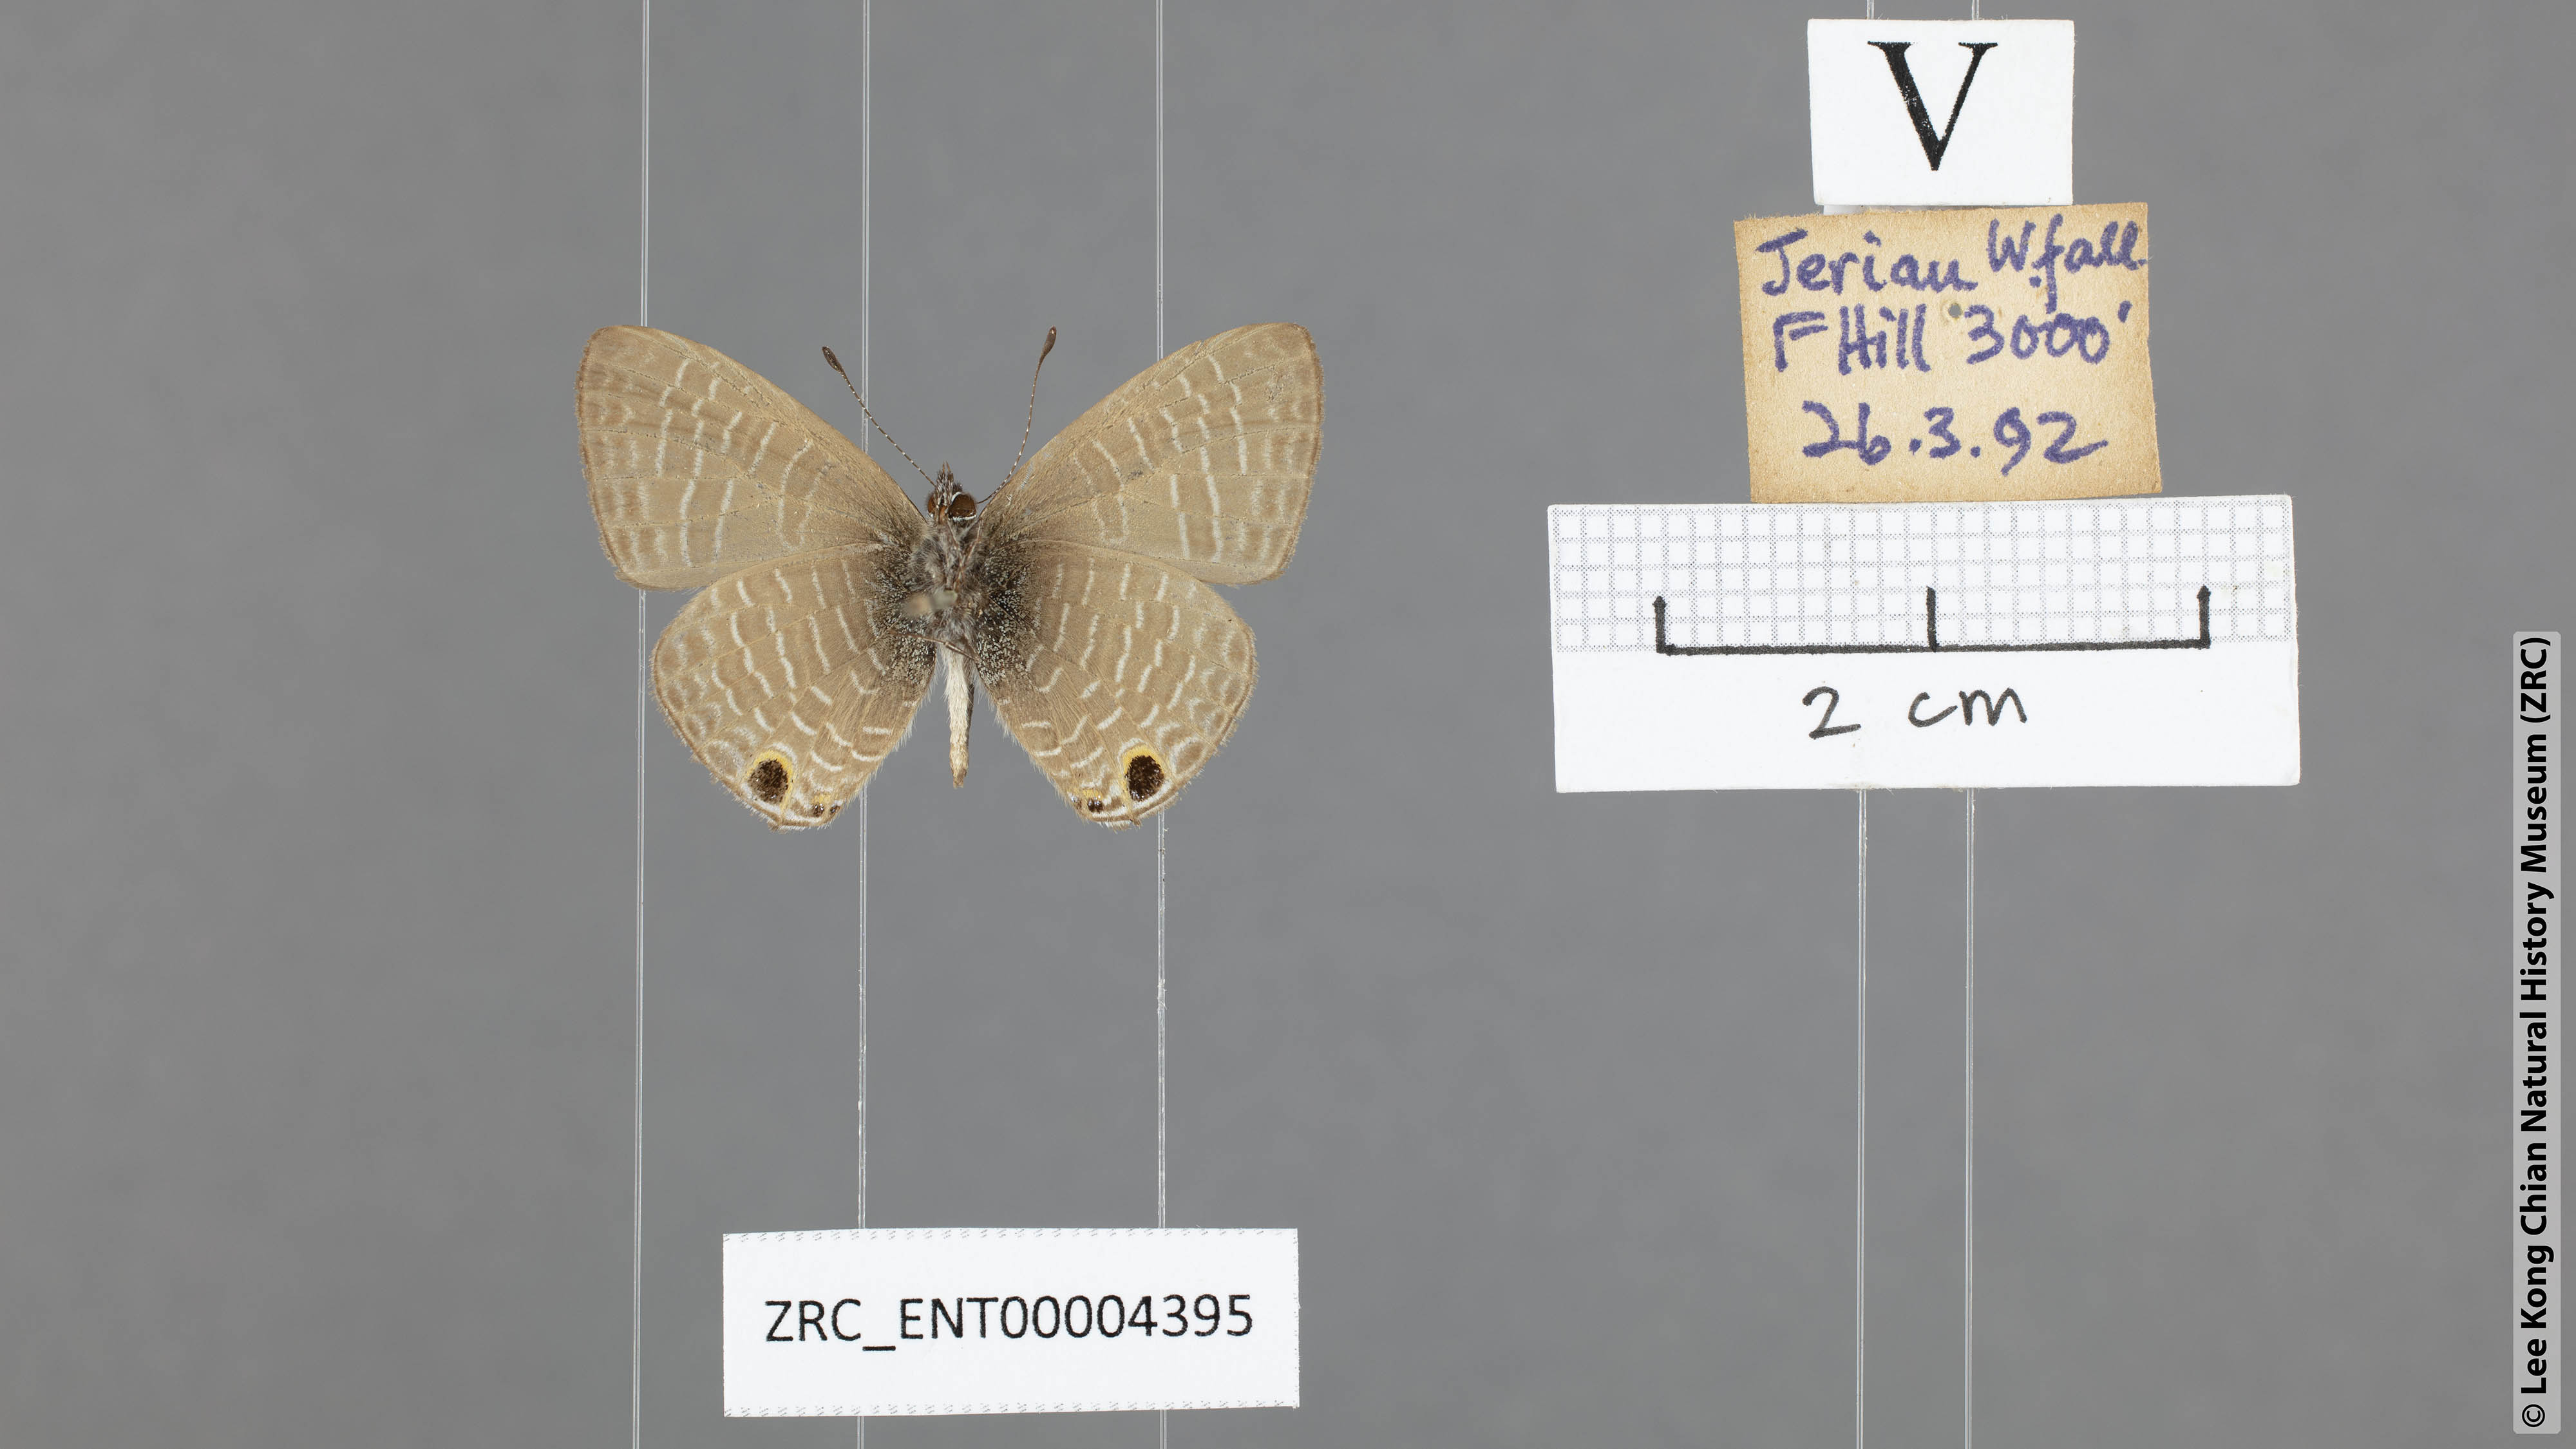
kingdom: Animalia
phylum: Arthropoda
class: Insecta
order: Lepidoptera
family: Lycaenidae
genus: Nacaduba
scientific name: Nacaduba beroe
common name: Opaque sixline blue
